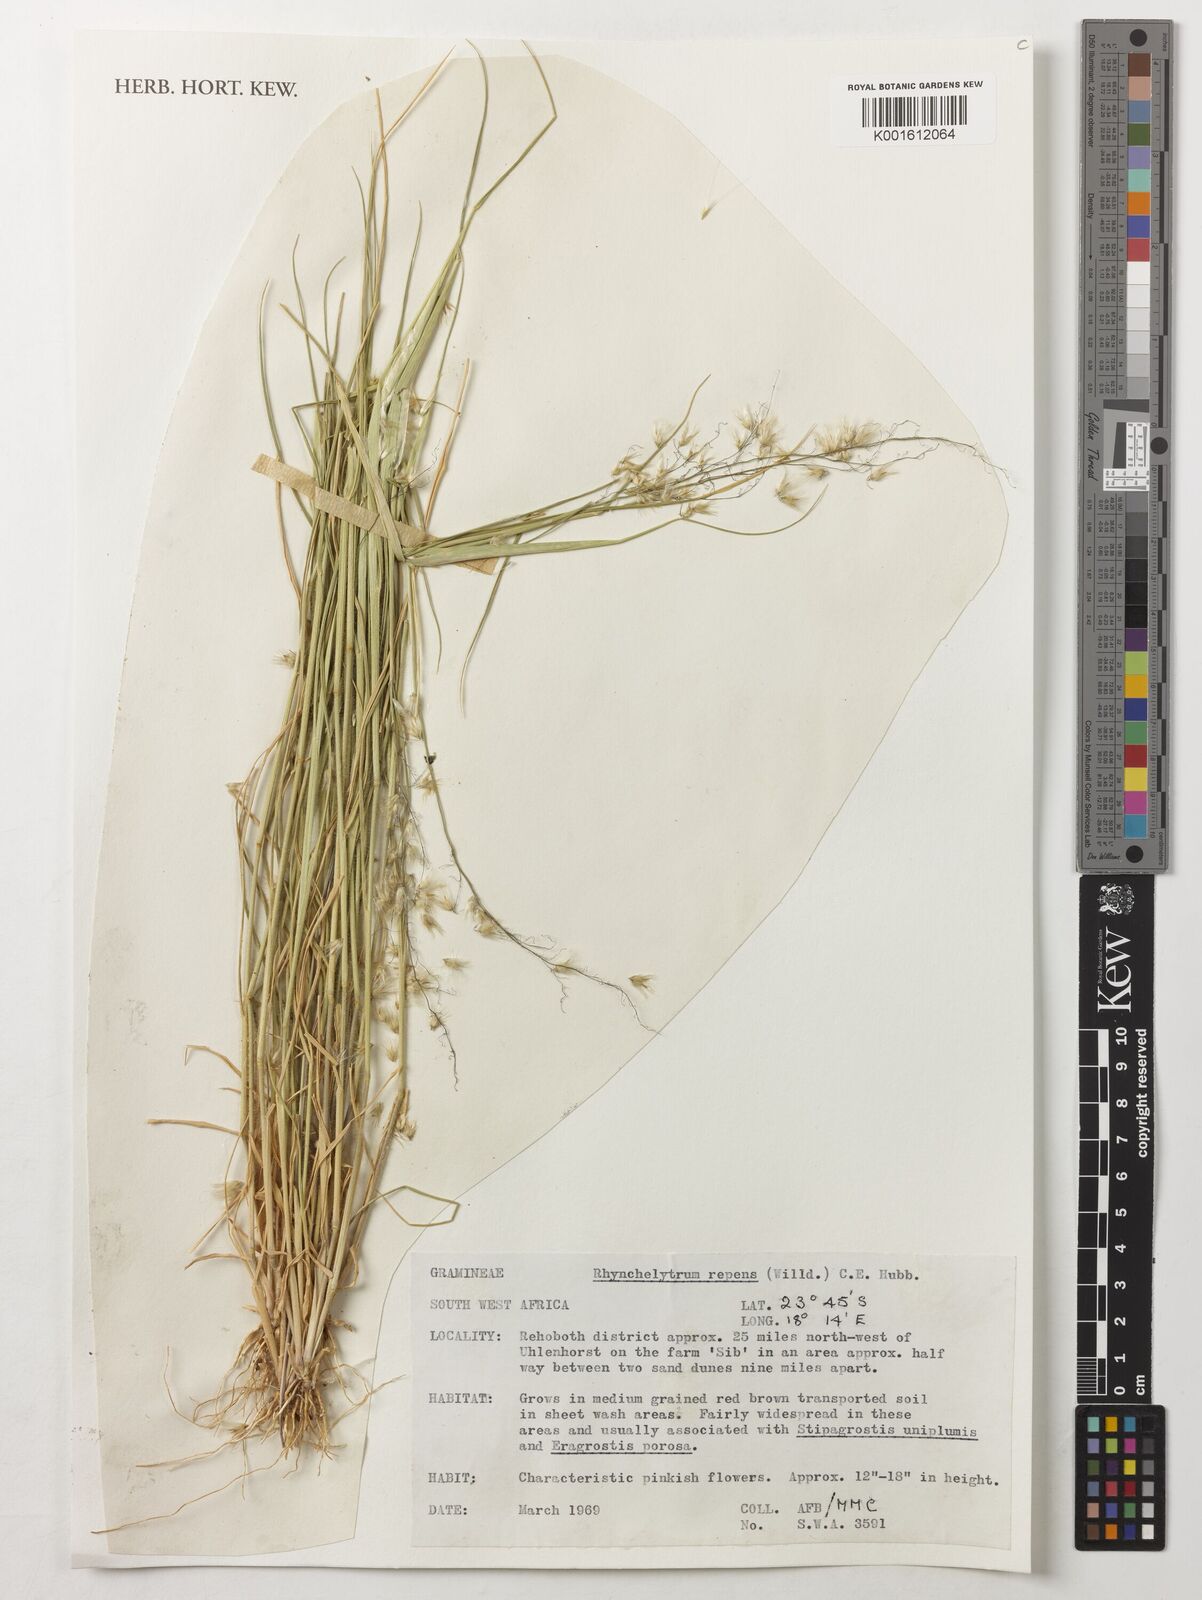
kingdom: Plantae
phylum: Tracheophyta
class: Liliopsida
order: Poales
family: Poaceae
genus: Melinis
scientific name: Melinis repens
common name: Rose natal grass
